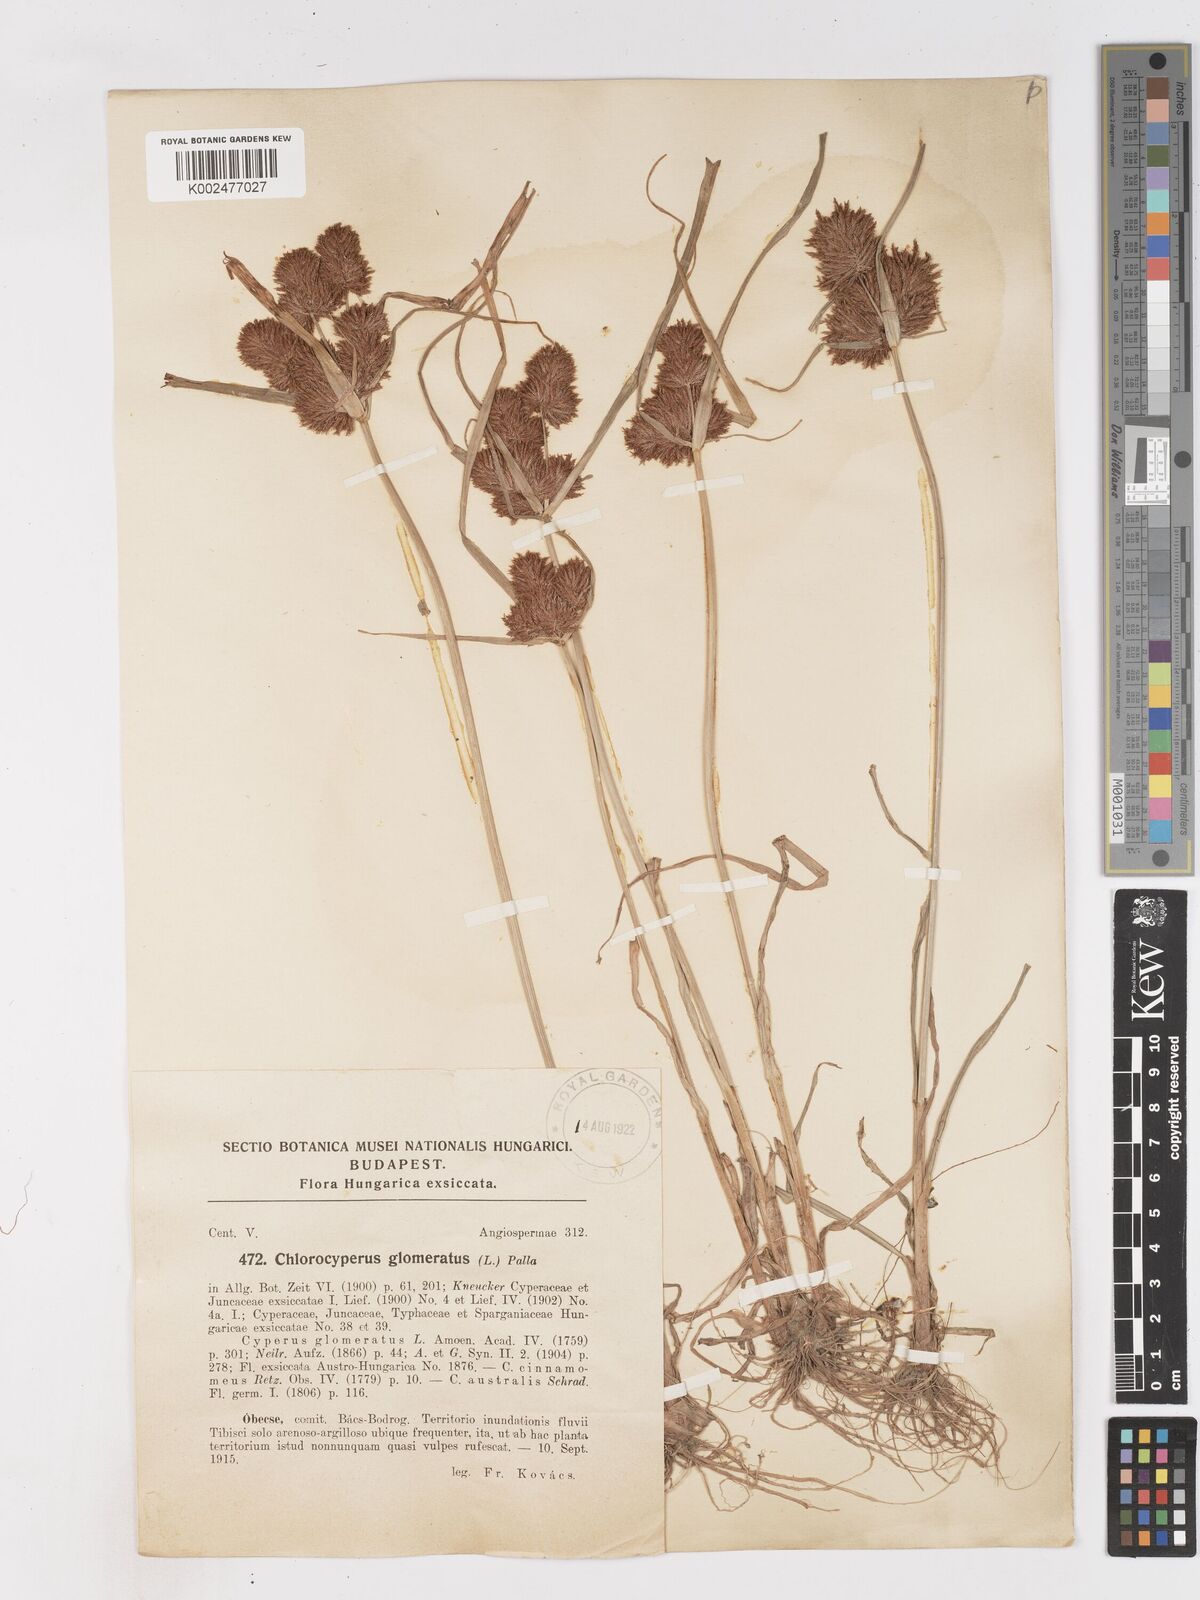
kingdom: Plantae
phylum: Tracheophyta
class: Liliopsida
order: Poales
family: Cyperaceae
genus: Cyperus
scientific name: Cyperus glomeratus
